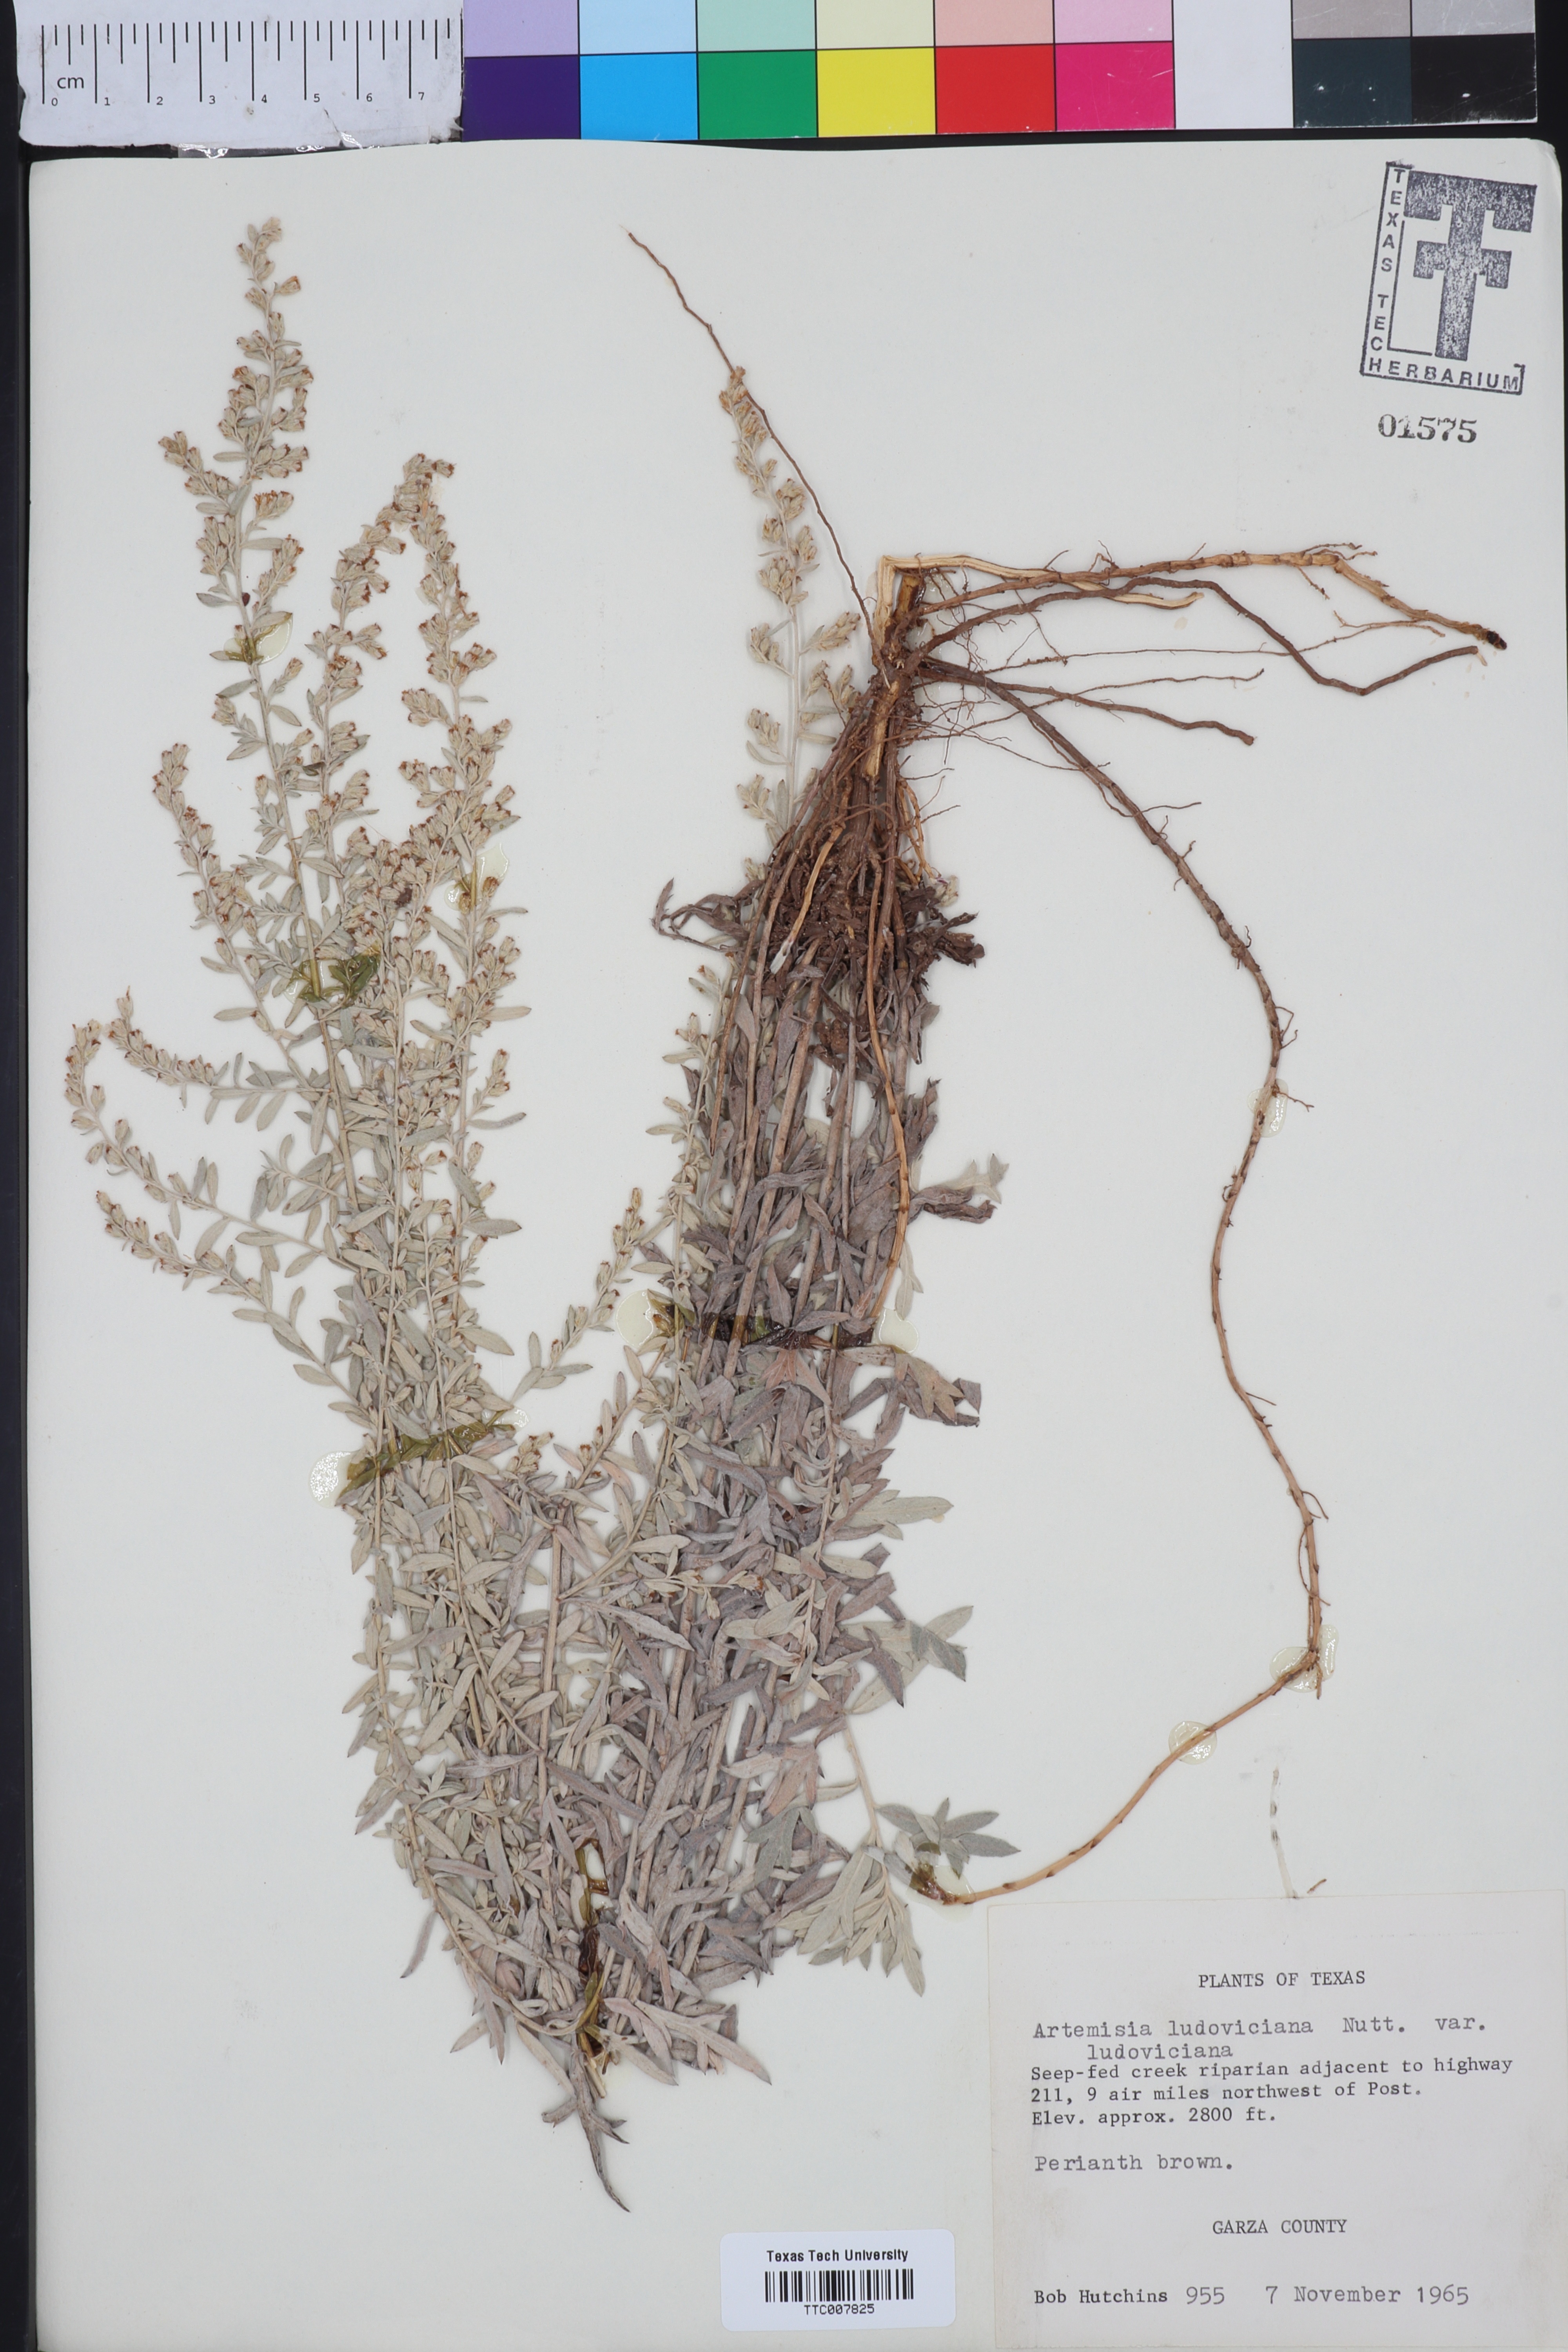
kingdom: Plantae
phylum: Tracheophyta
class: Magnoliopsida
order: Asterales
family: Asteraceae
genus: Artemisia
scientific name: Artemisia ludoviciana
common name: Western mugwort
